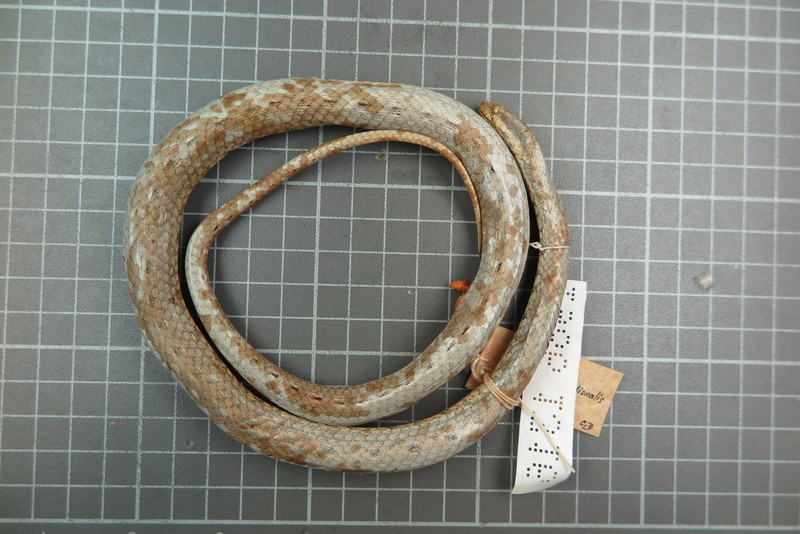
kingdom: Animalia
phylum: Chordata
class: Squamata
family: Psammophiidae
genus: Mimophis
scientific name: Mimophis
